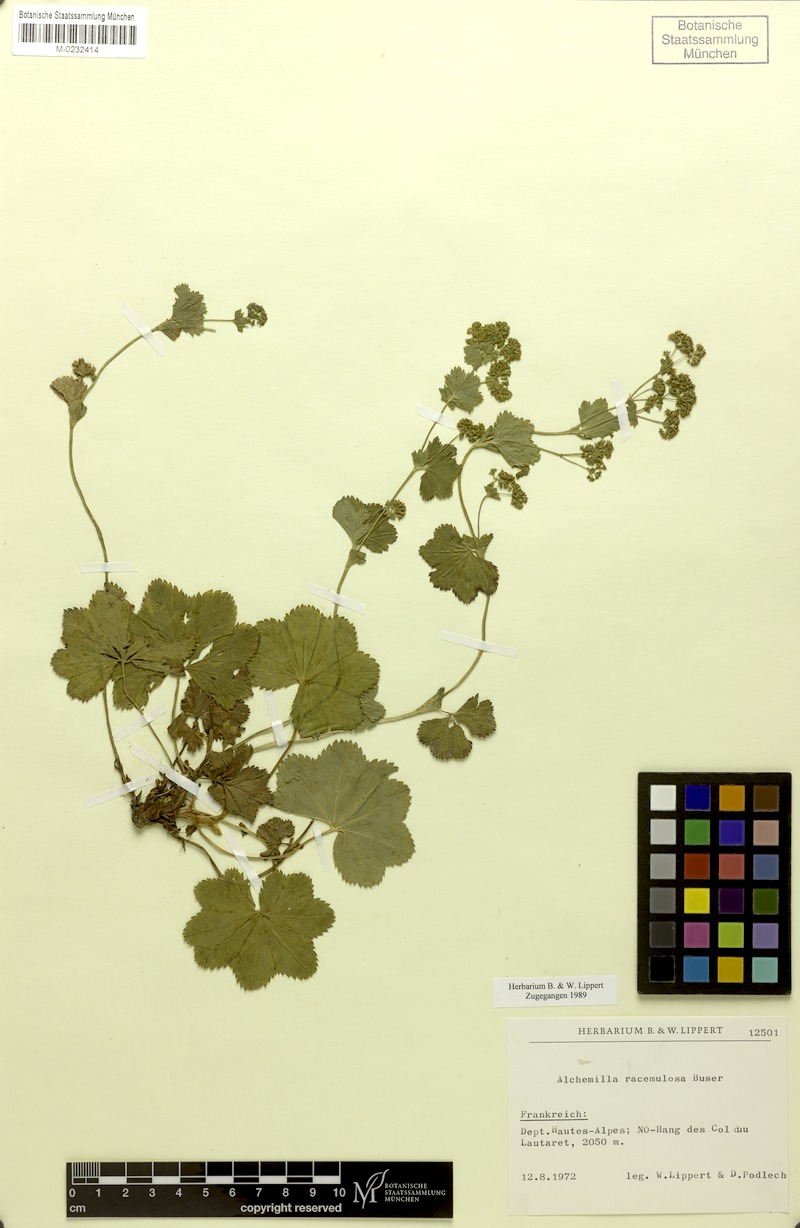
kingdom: Plantae
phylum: Tracheophyta
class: Magnoliopsida
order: Rosales
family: Rosaceae
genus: Alchemilla
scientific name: Alchemilla racemulosa
